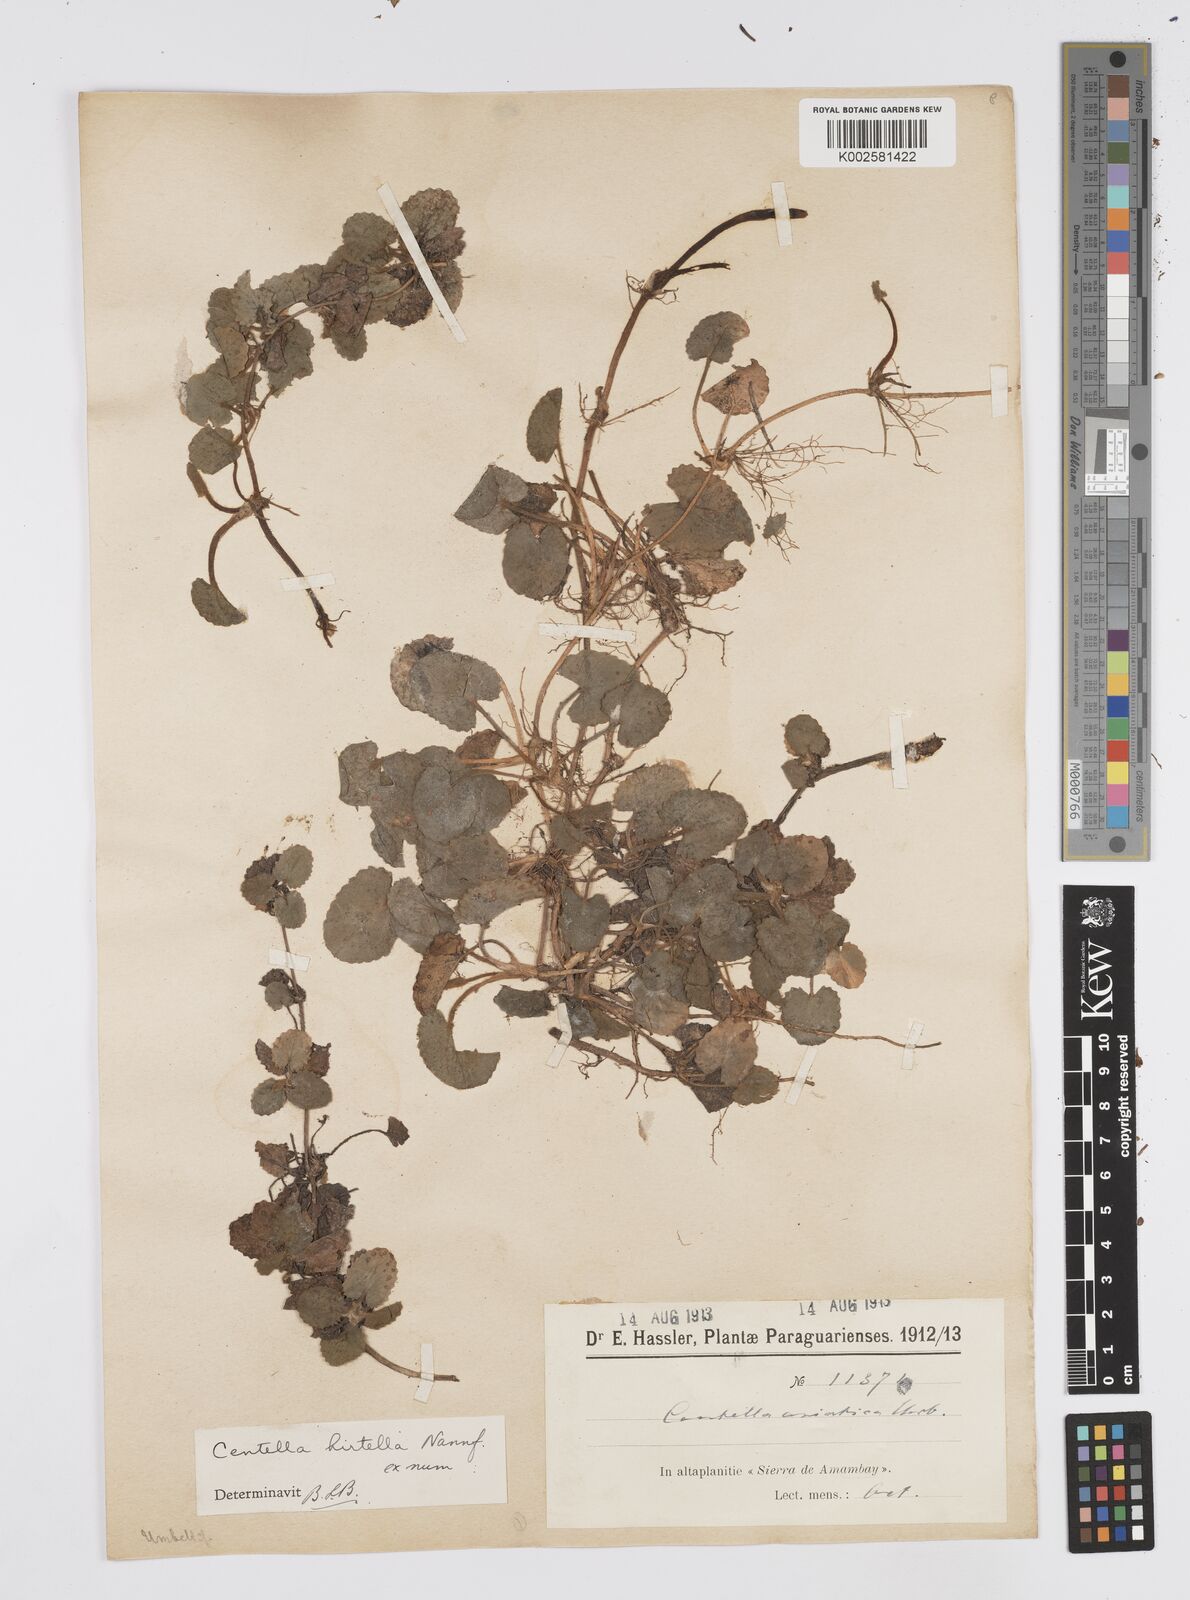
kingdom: Plantae
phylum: Tracheophyta
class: Magnoliopsida
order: Apiales
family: Apiaceae
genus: Centella
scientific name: Centella asiatica
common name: Spadeleaf
